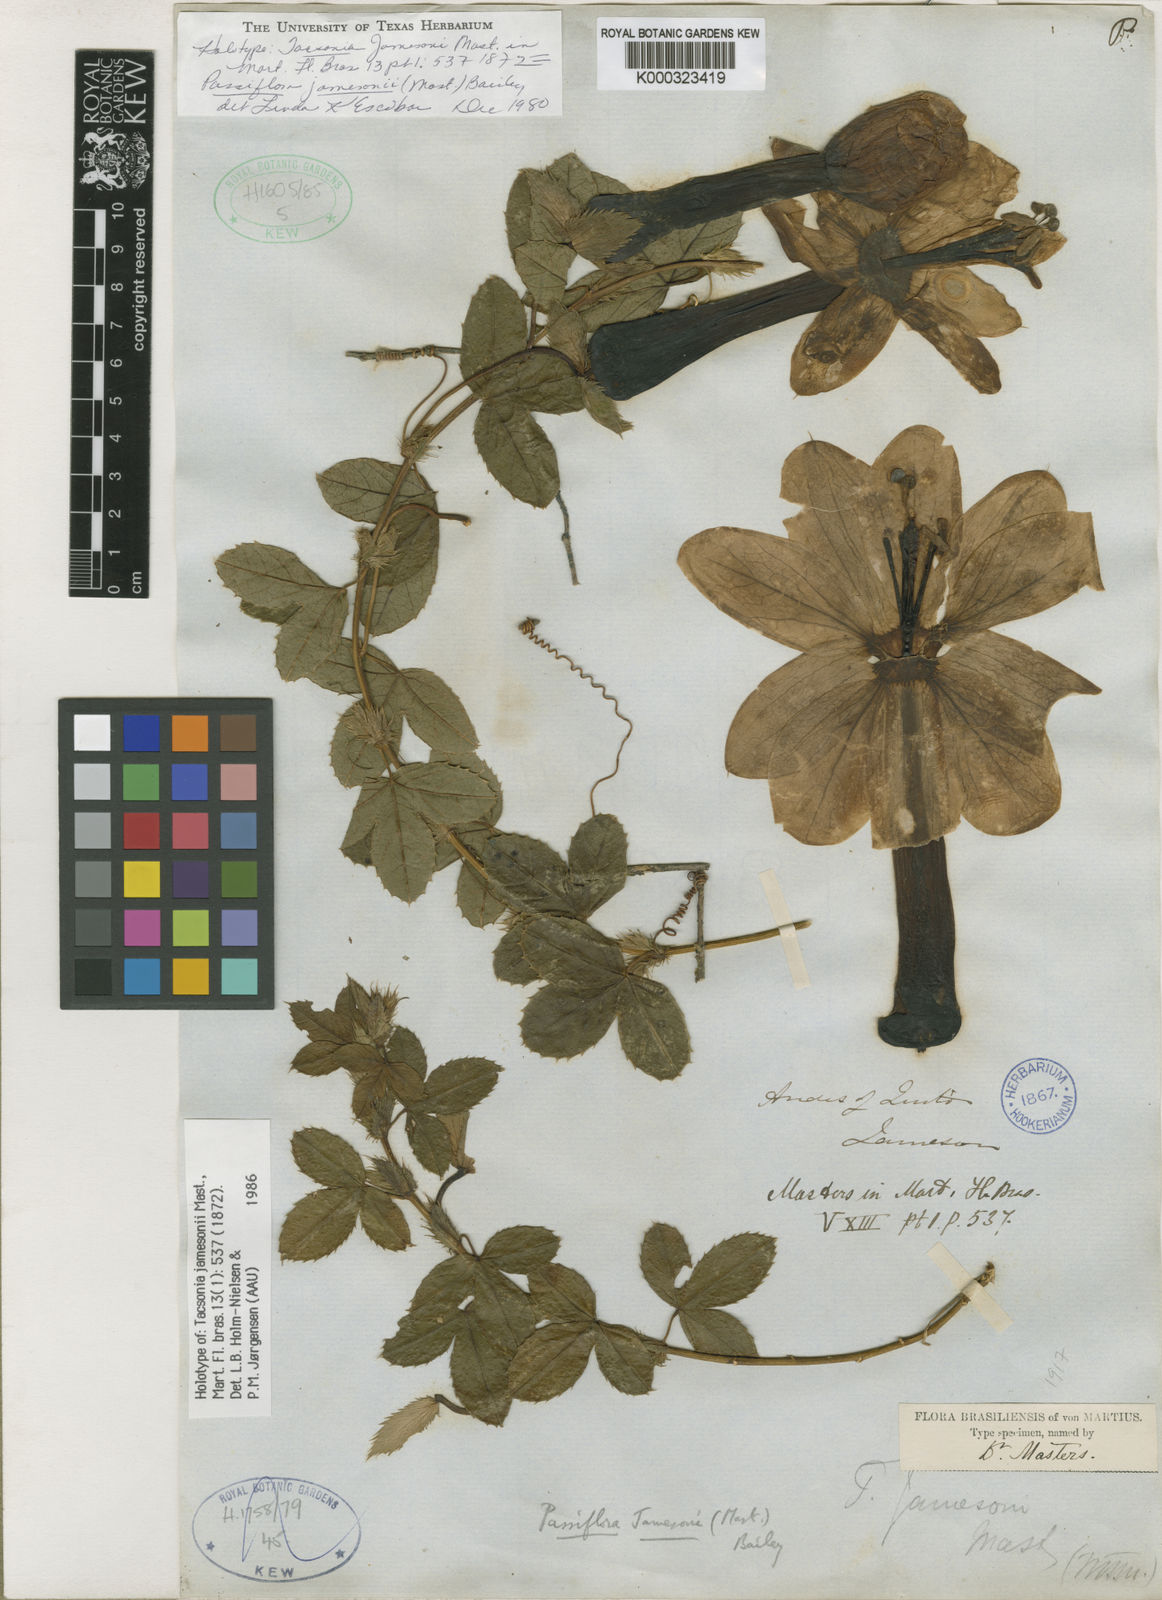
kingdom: Plantae
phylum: Tracheophyta
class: Magnoliopsida
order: Malpighiales
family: Passifloraceae
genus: Passiflora
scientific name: Passiflora jamesonii
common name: Passion vine
